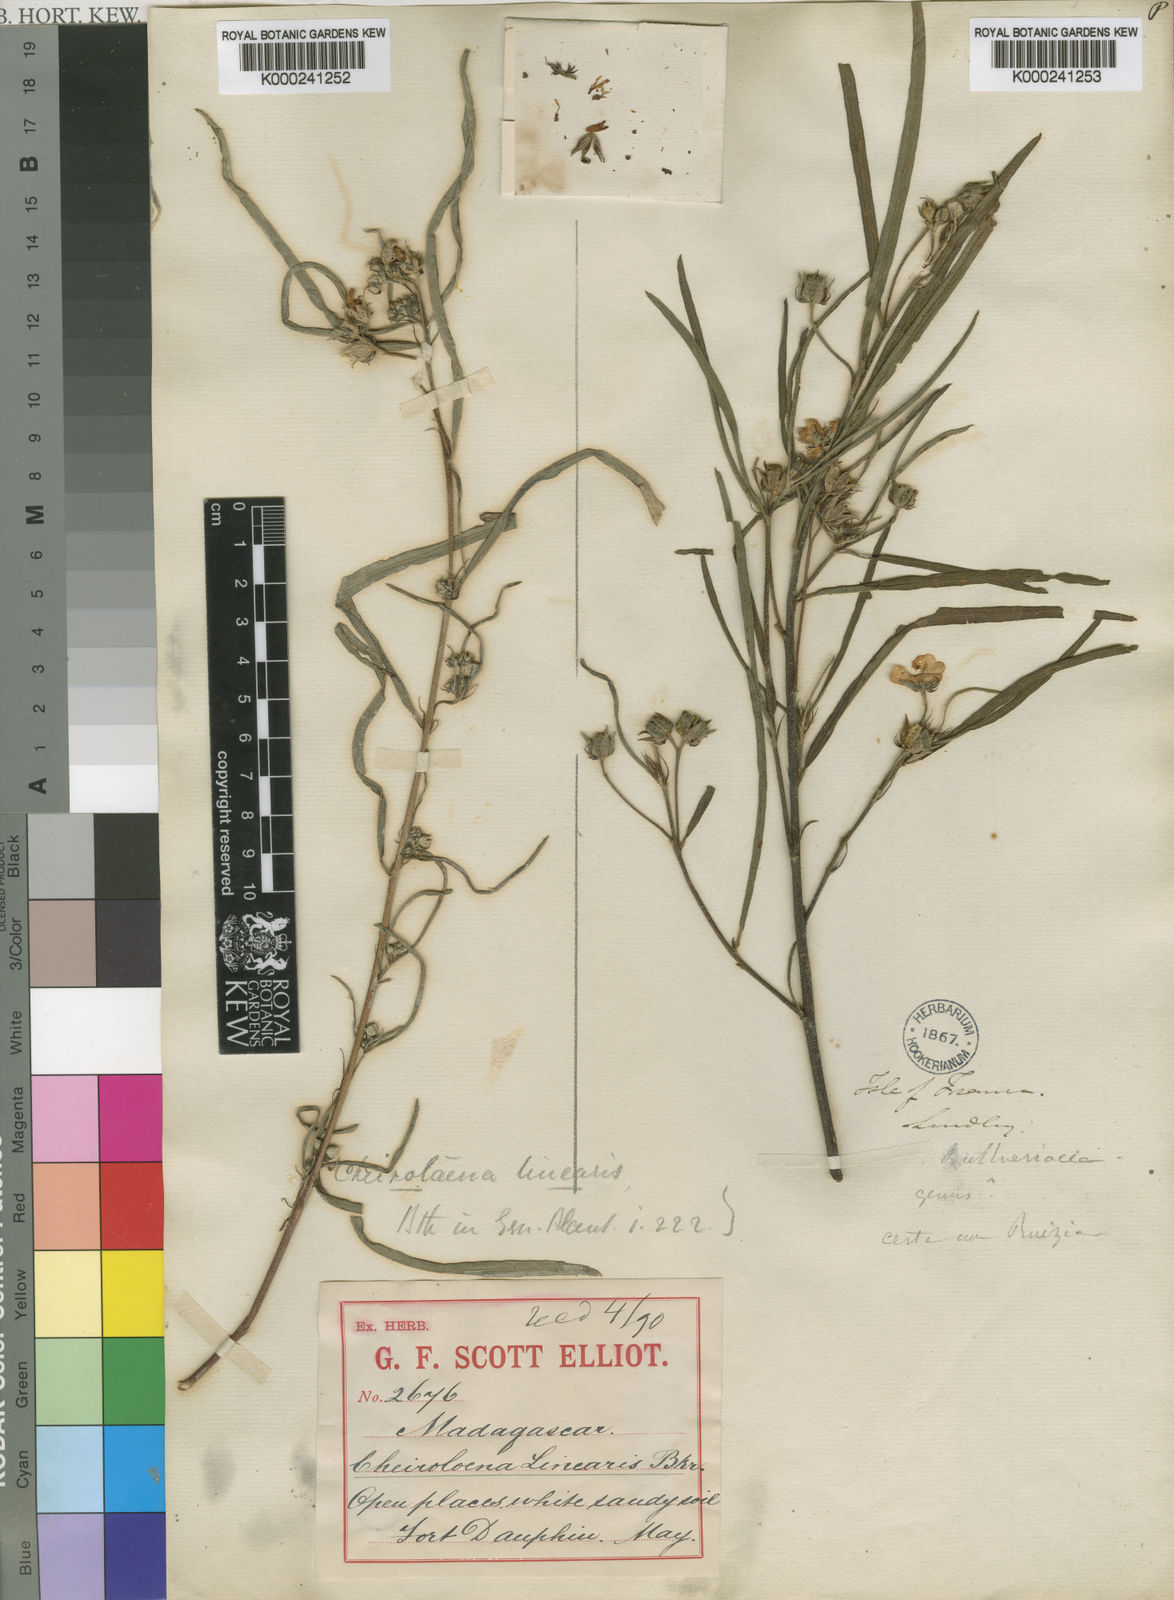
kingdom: Plantae
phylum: Tracheophyta
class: Magnoliopsida
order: Malvales
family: Malvaceae
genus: Cheirolaena
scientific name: Cheirolaena linearis
